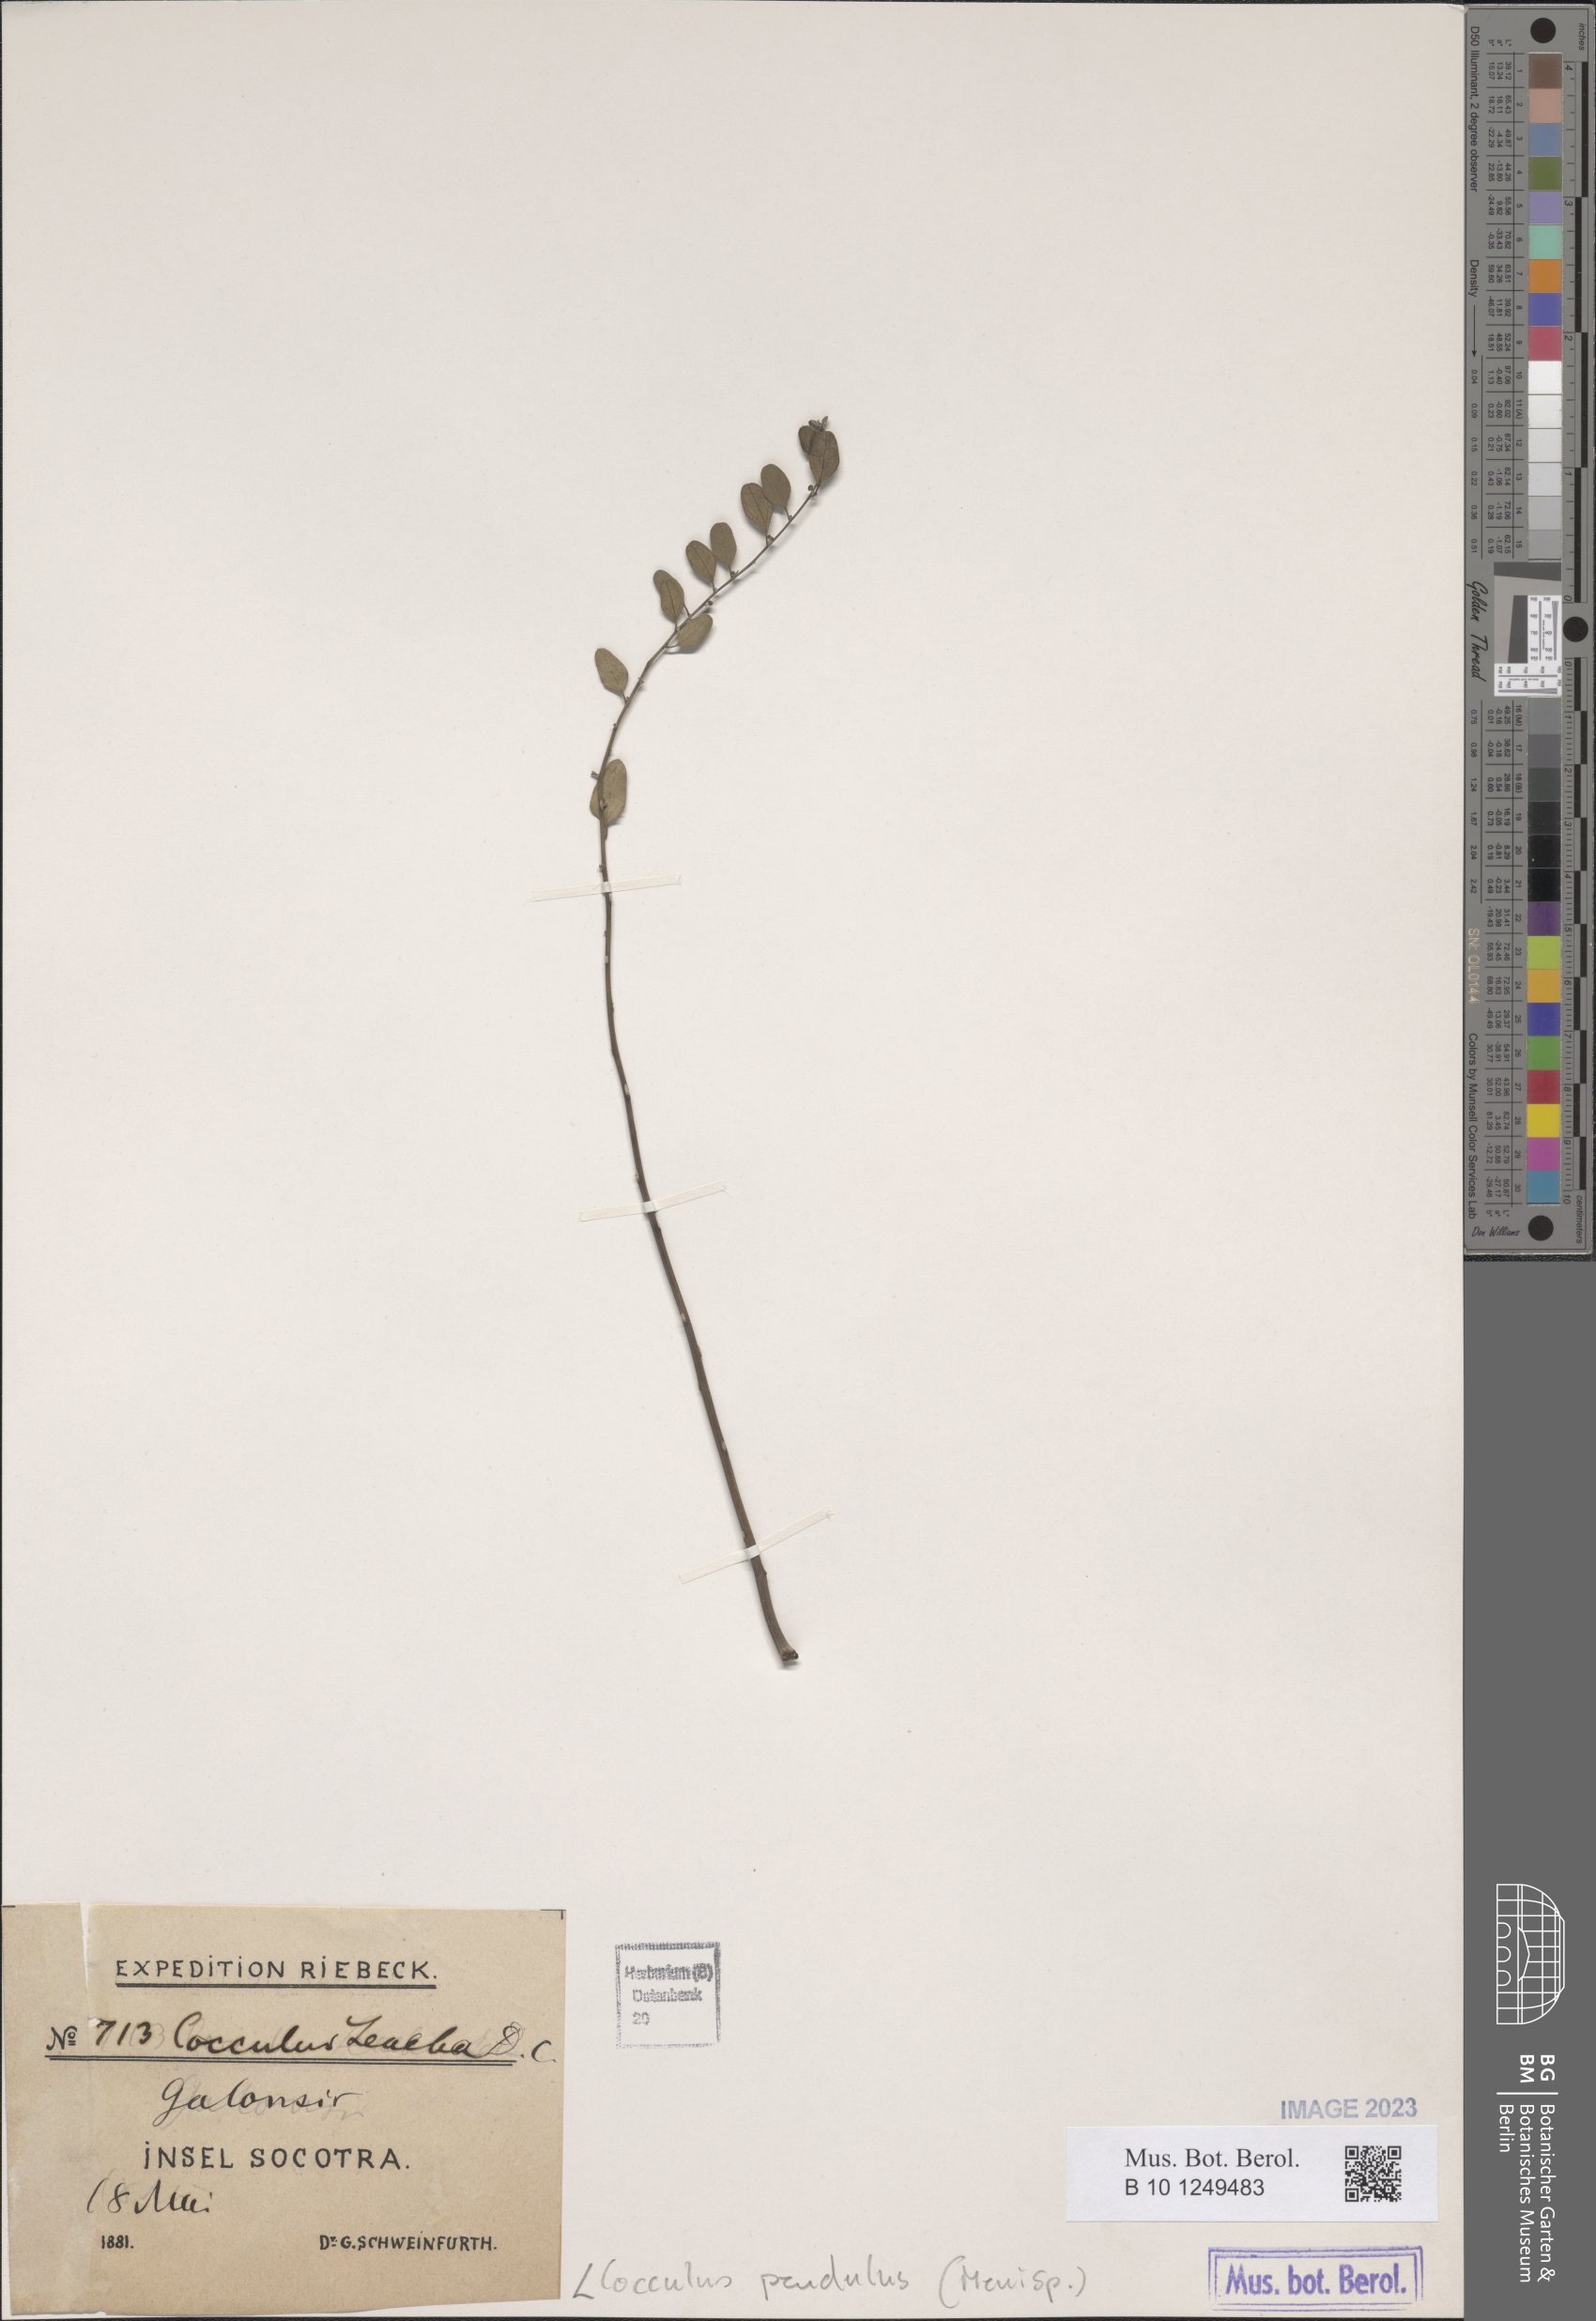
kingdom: Plantae
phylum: Tracheophyta
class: Magnoliopsida
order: Ranunculales
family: Menispermaceae
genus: Cocculus
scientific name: Cocculus pendulus
